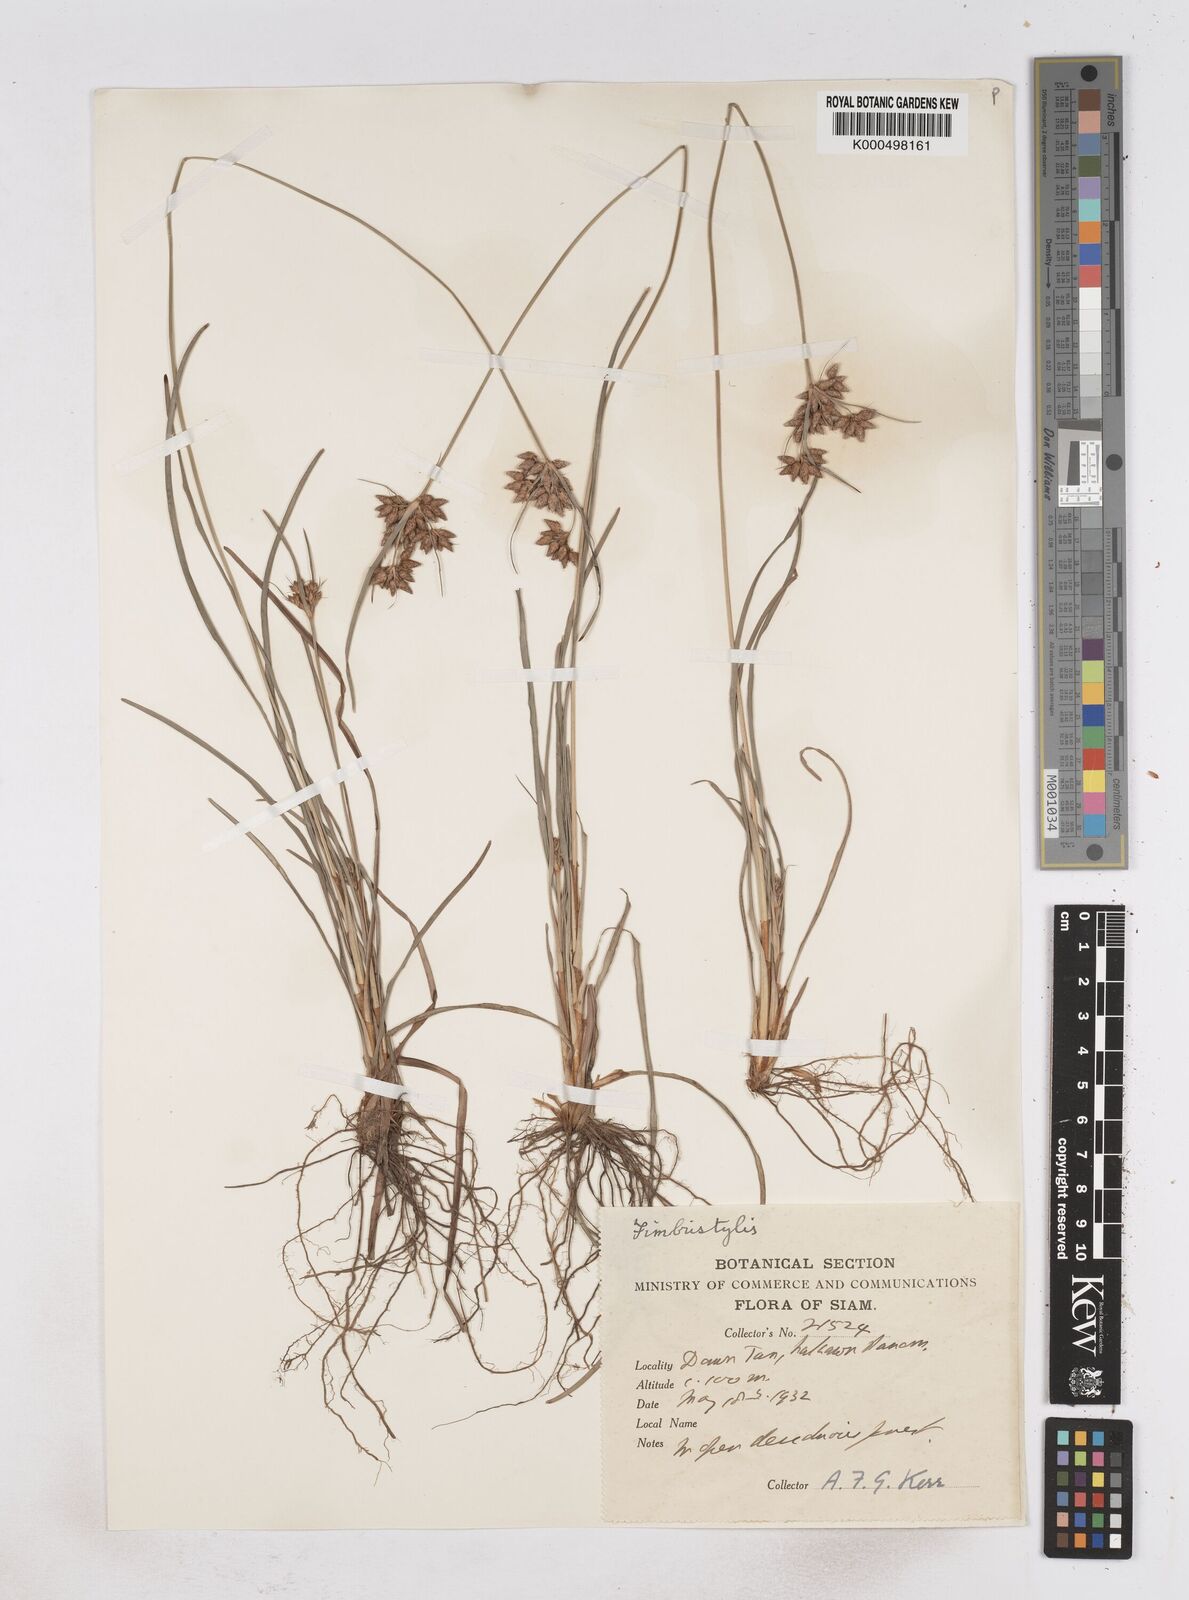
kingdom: Plantae
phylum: Tracheophyta
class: Liliopsida
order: Poales
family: Cyperaceae
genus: Fimbristylis
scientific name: Fimbristylis dichotoma
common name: Forked fimbry
